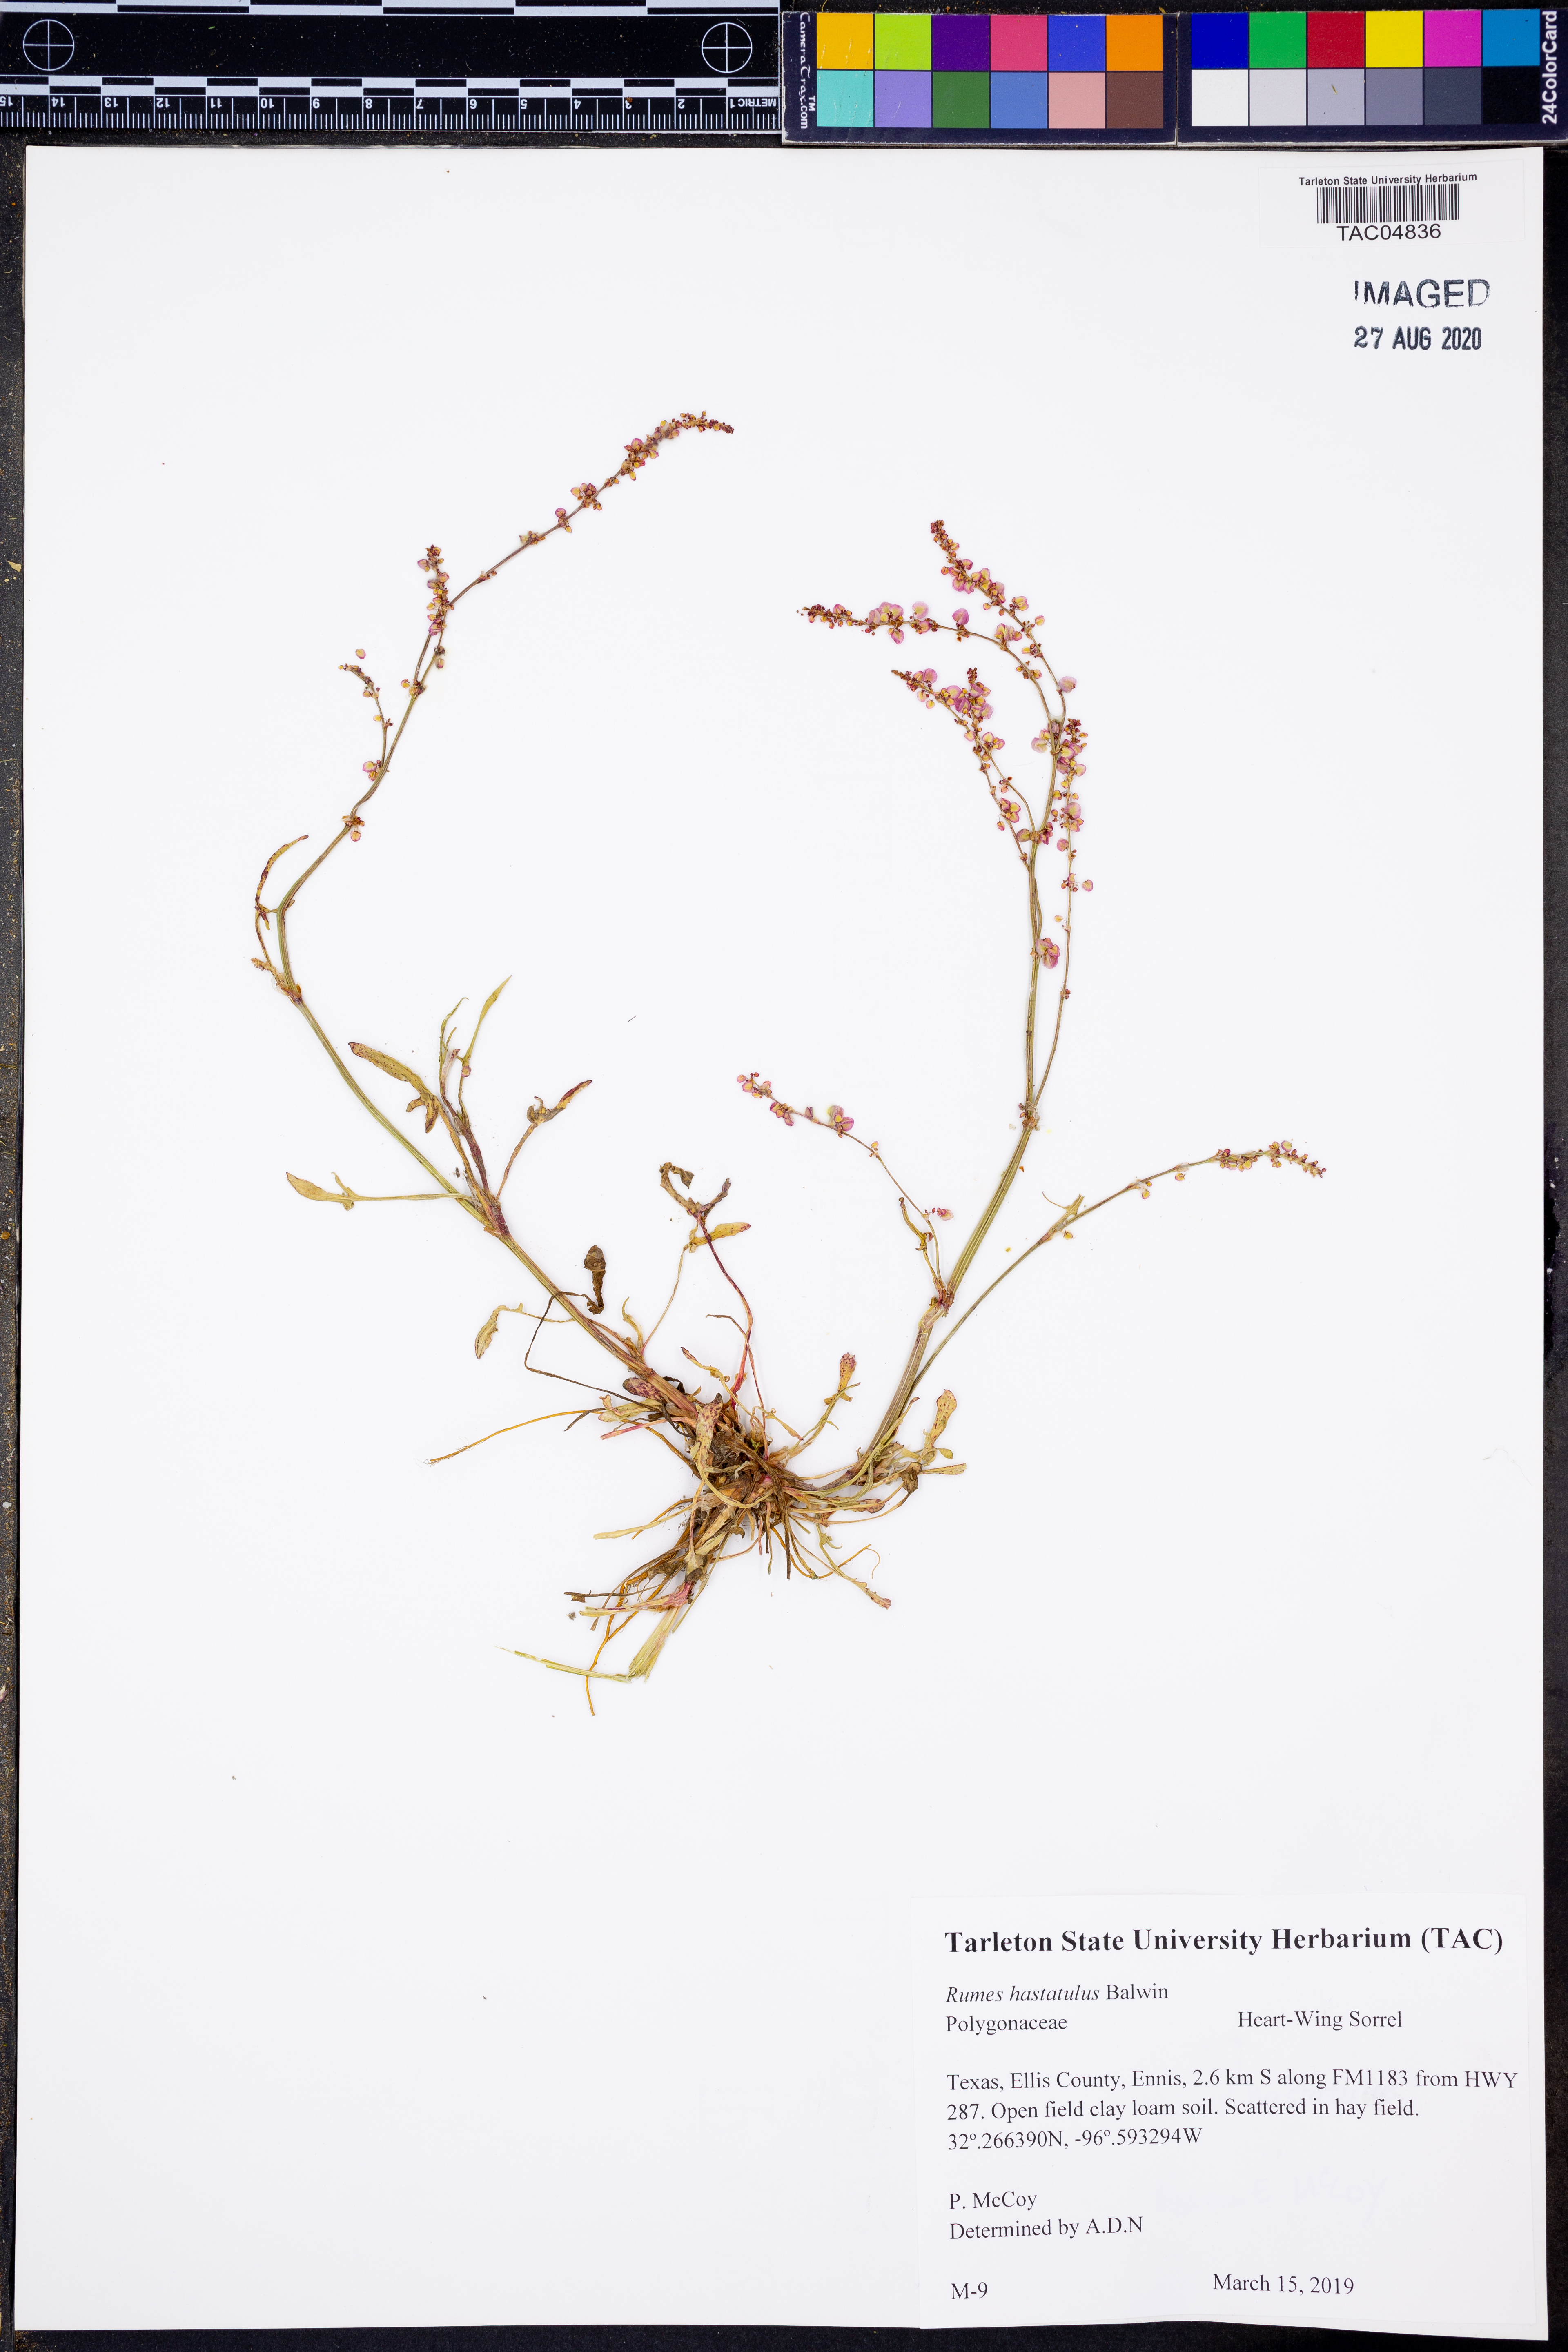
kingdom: Plantae
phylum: Tracheophyta
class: Magnoliopsida
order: Caryophyllales
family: Polygonaceae
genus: Rumex
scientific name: Rumex hastatulus
